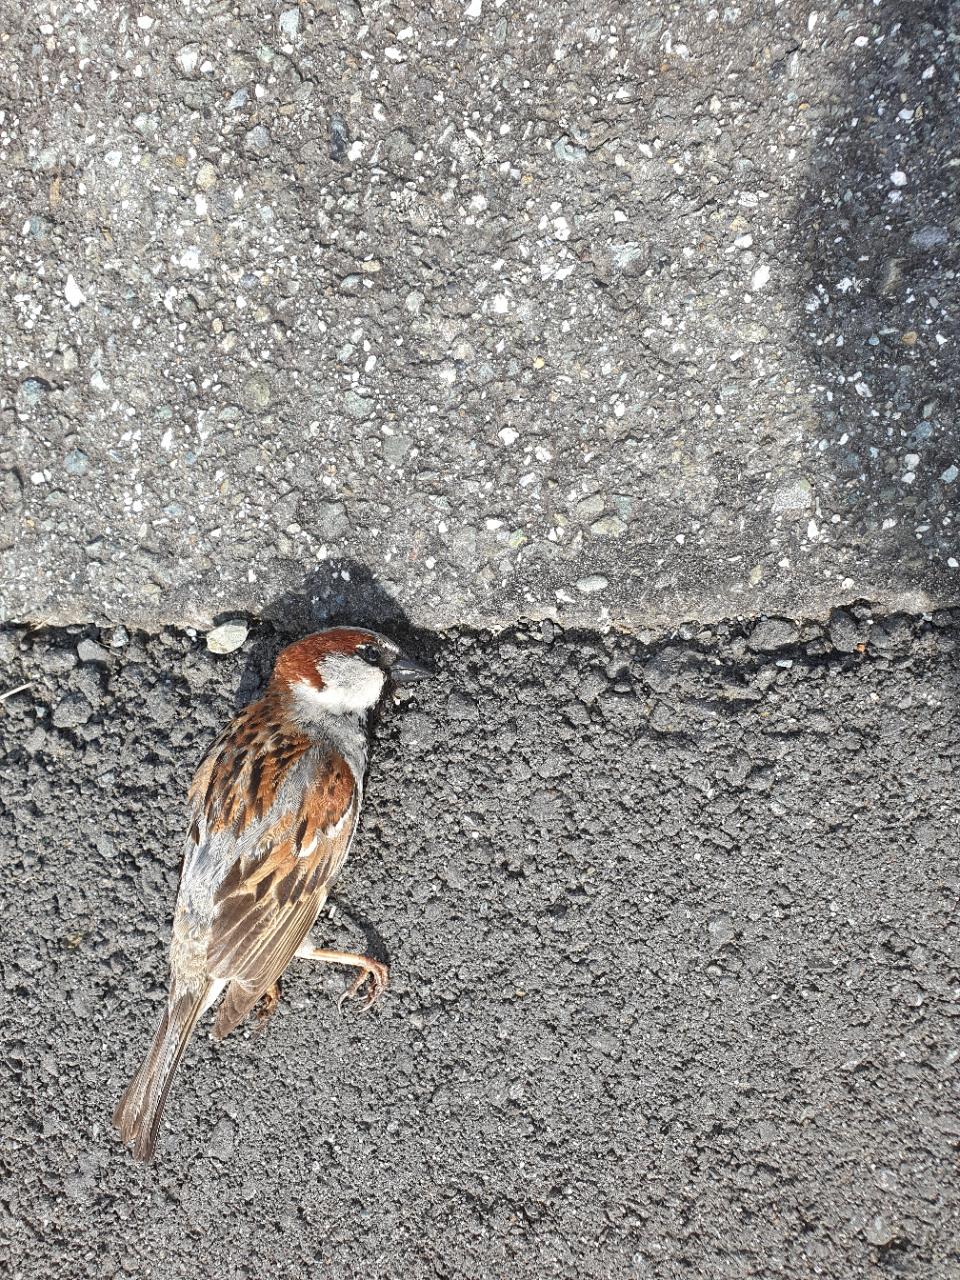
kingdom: Animalia
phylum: Chordata
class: Aves
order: Passeriformes
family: Passeridae
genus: Passer
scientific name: Passer domesticus
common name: House sparrow
